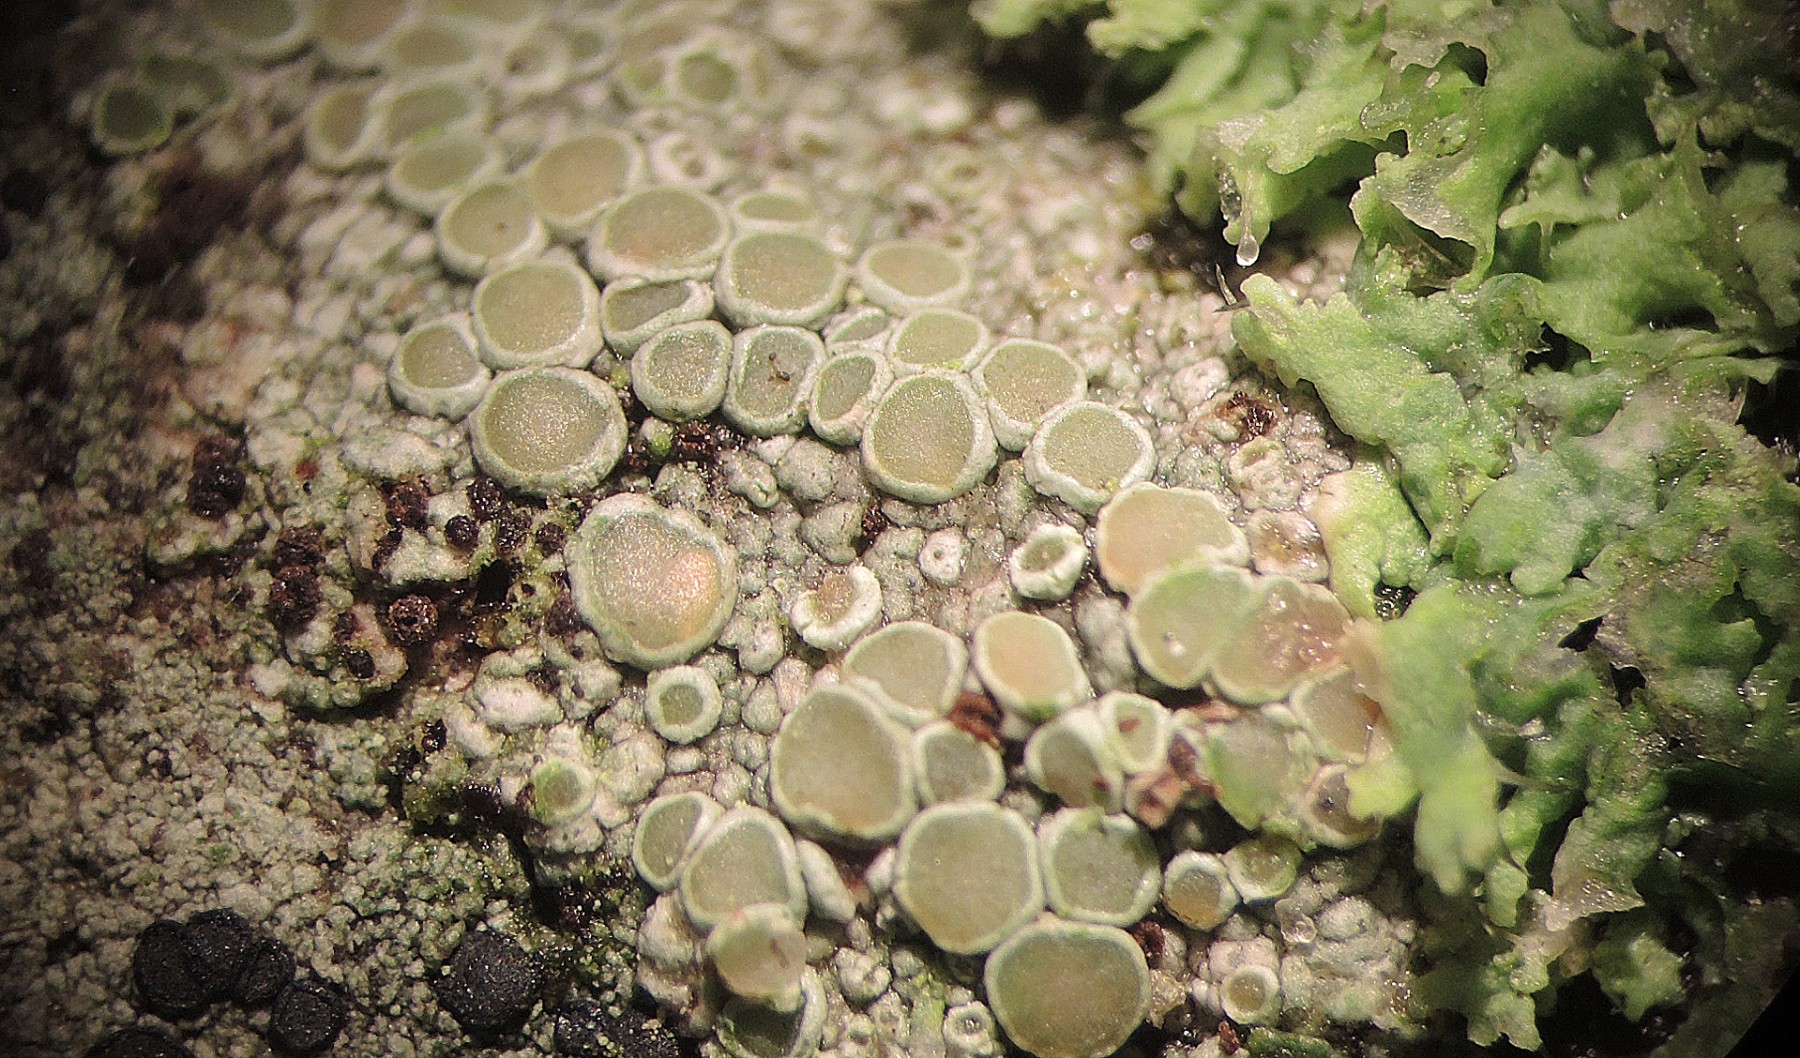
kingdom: Fungi
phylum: Ascomycota
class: Dothideomycetes
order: Pleosporales
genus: Vouauxiella
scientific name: Vouauxiella lichenicola
